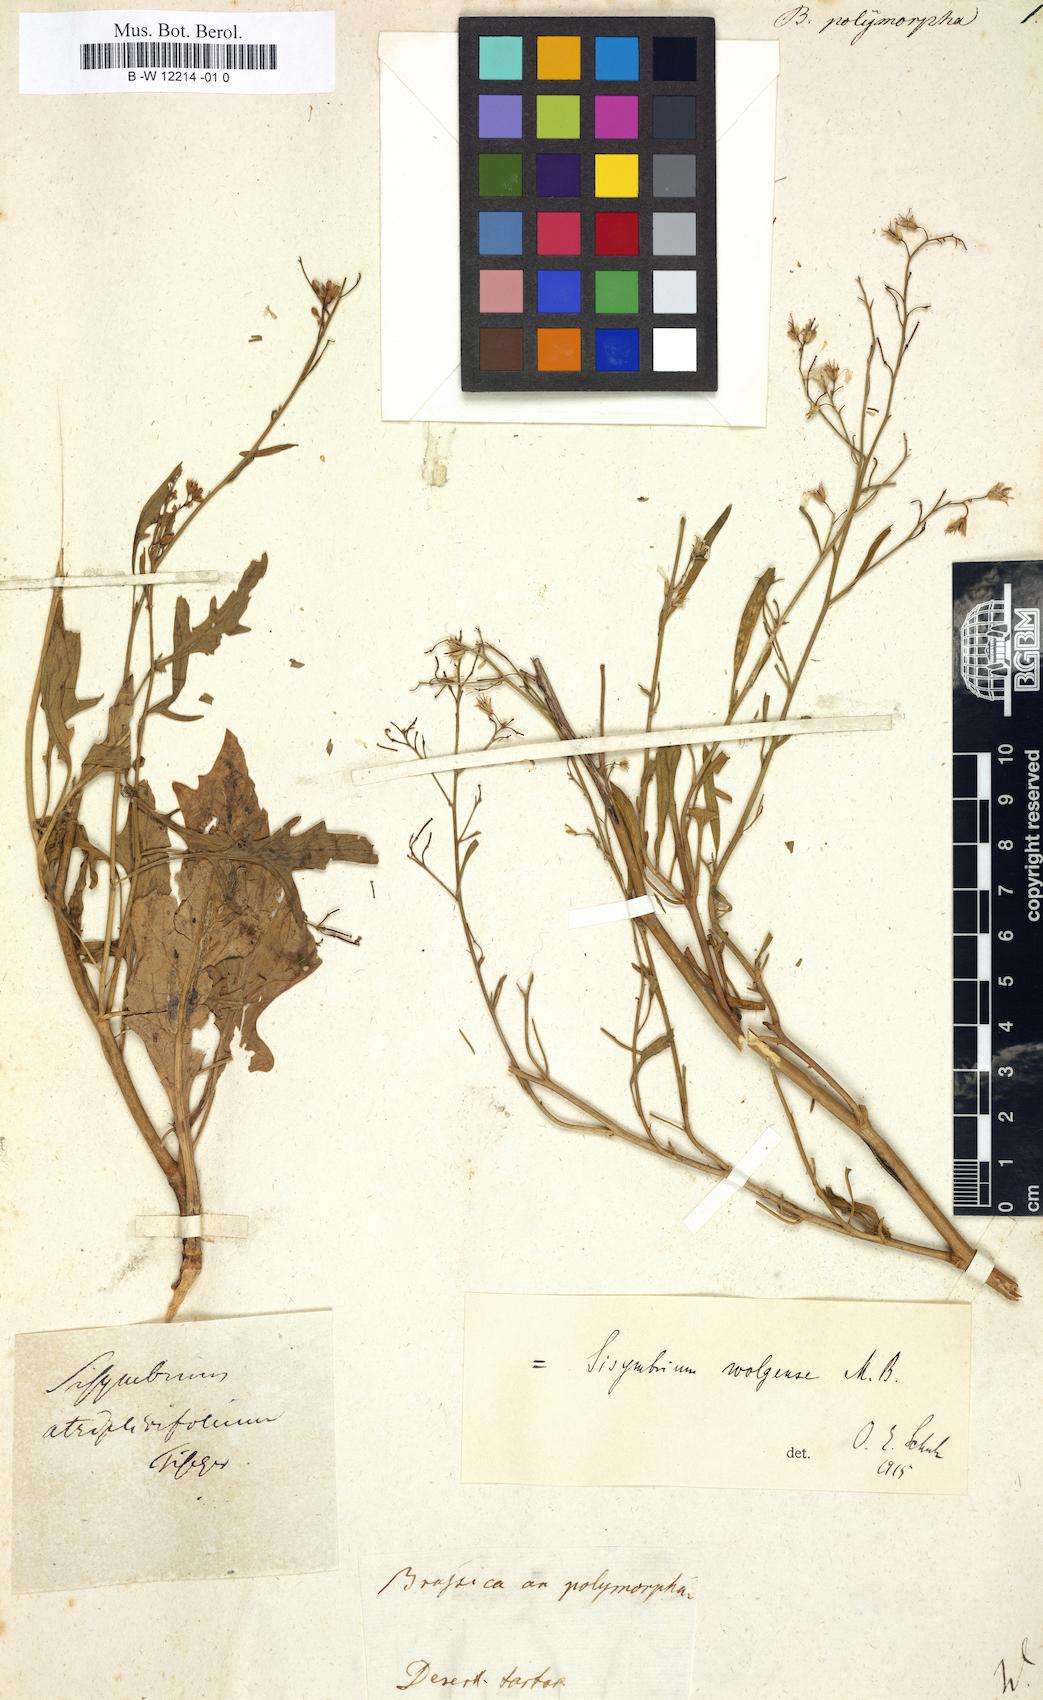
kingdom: Plantae
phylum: Tracheophyta
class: Magnoliopsida
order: Brassicales
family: Brassicaceae
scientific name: Brassicaceae
